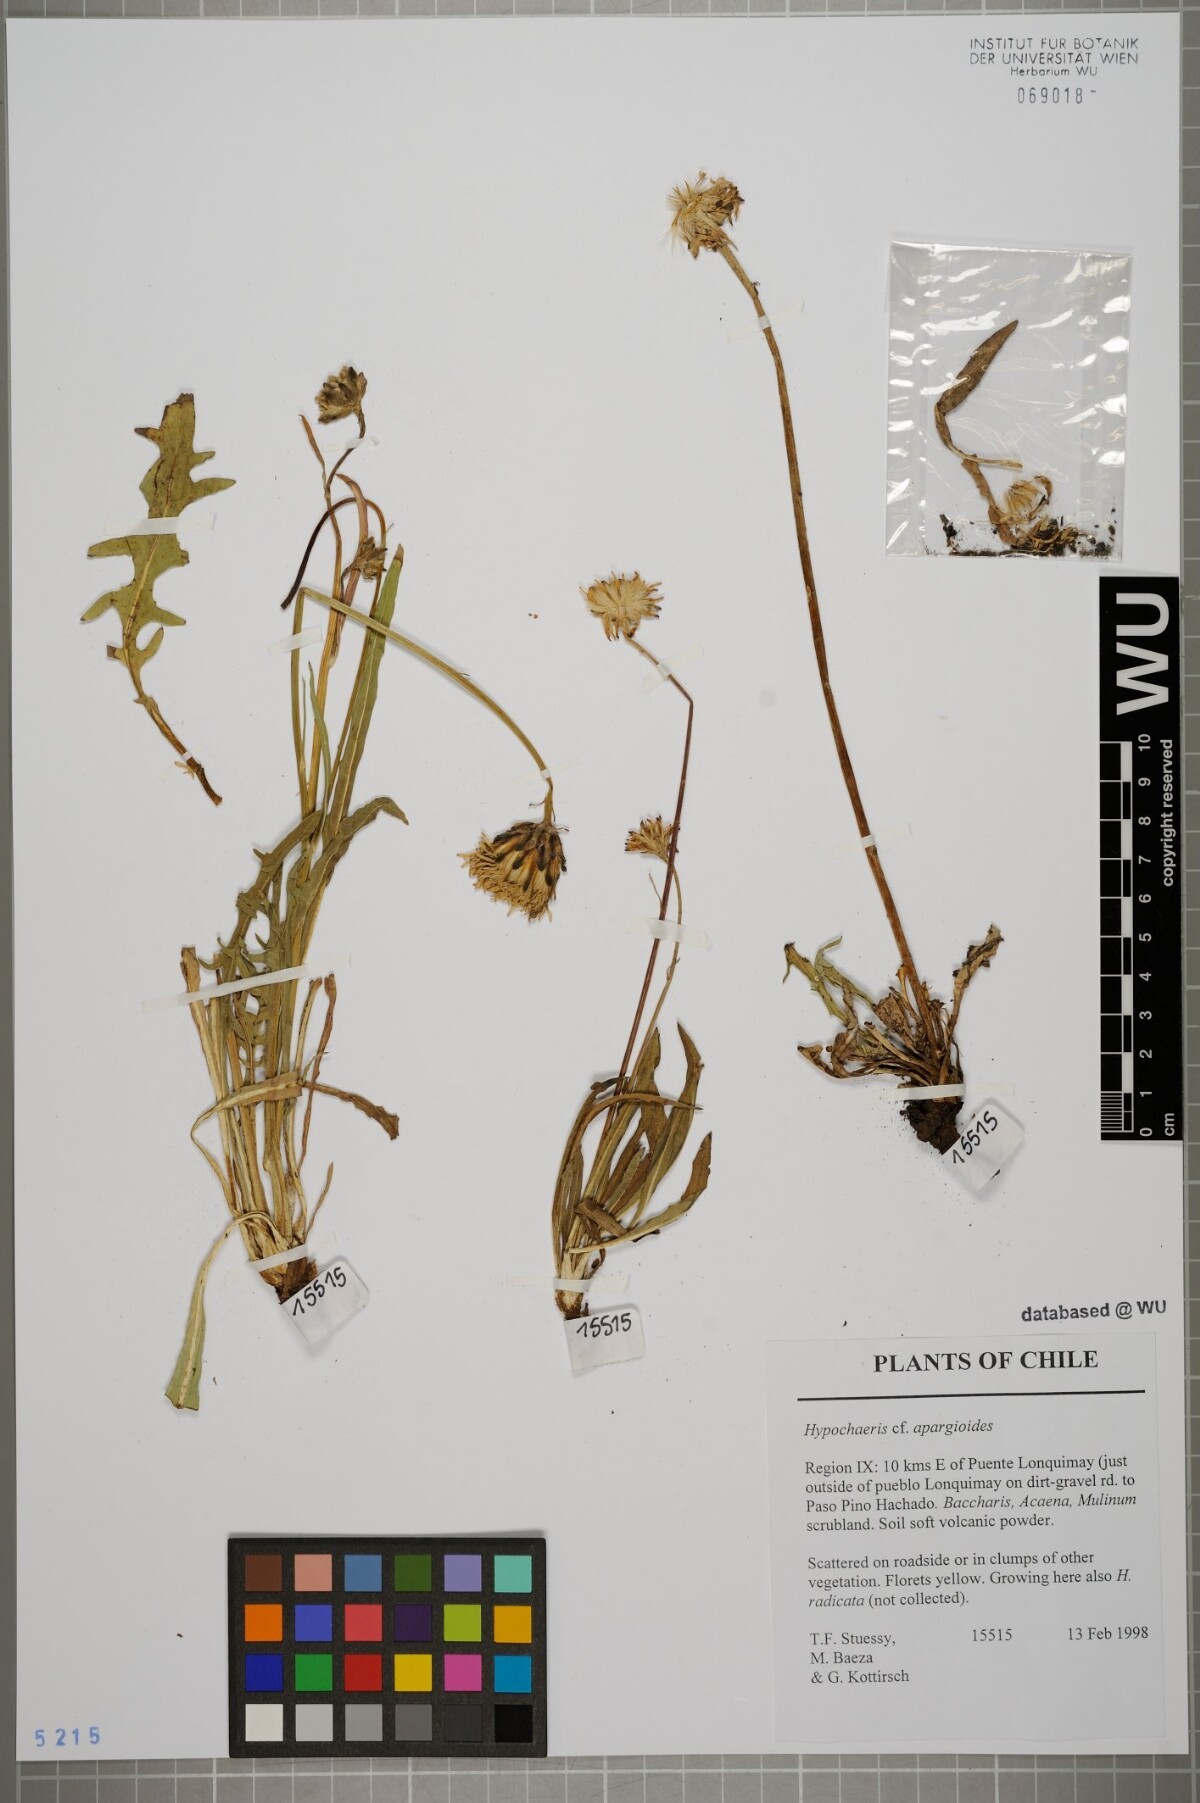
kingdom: Plantae
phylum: Tracheophyta
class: Magnoliopsida
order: Asterales
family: Asteraceae
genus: Hypochaeris
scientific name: Hypochaeris apargioides
